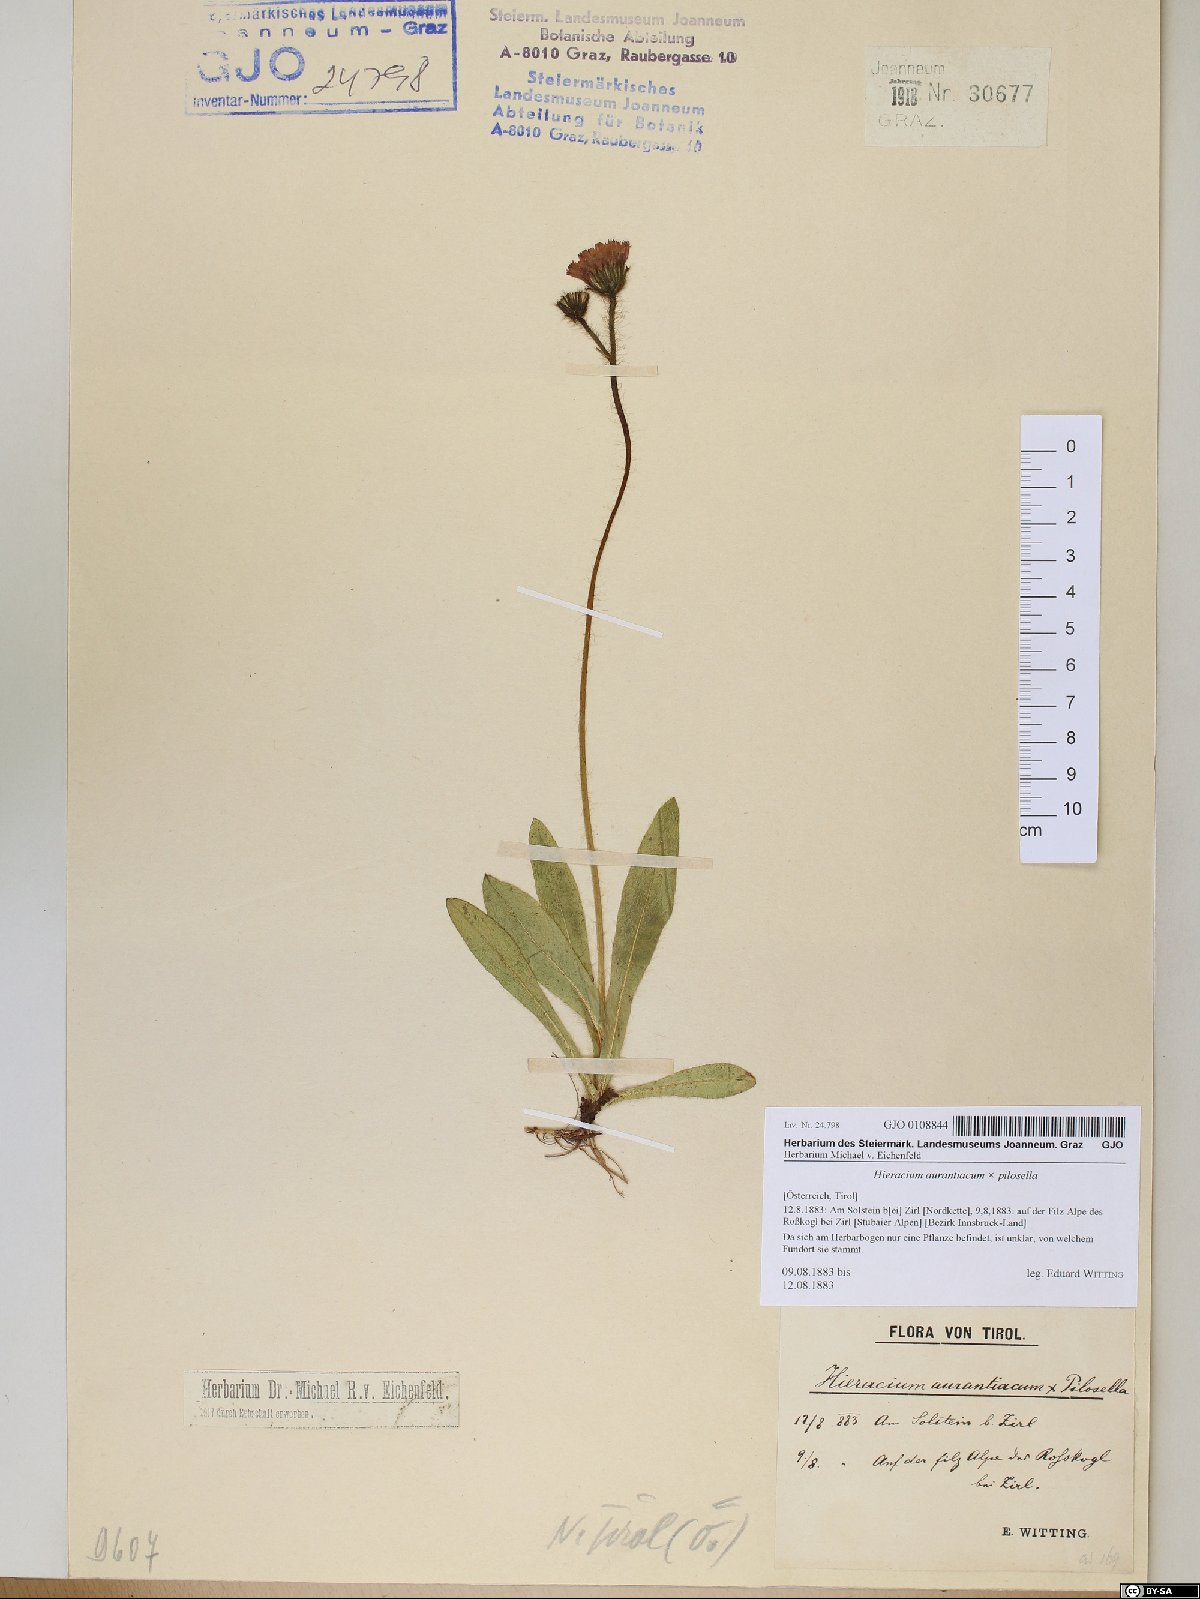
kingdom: Plantae
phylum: Tracheophyta
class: Magnoliopsida
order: Asterales
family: Asteraceae
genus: Pilosella
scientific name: Pilosella aurantiaca
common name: Fox-and-cubs
